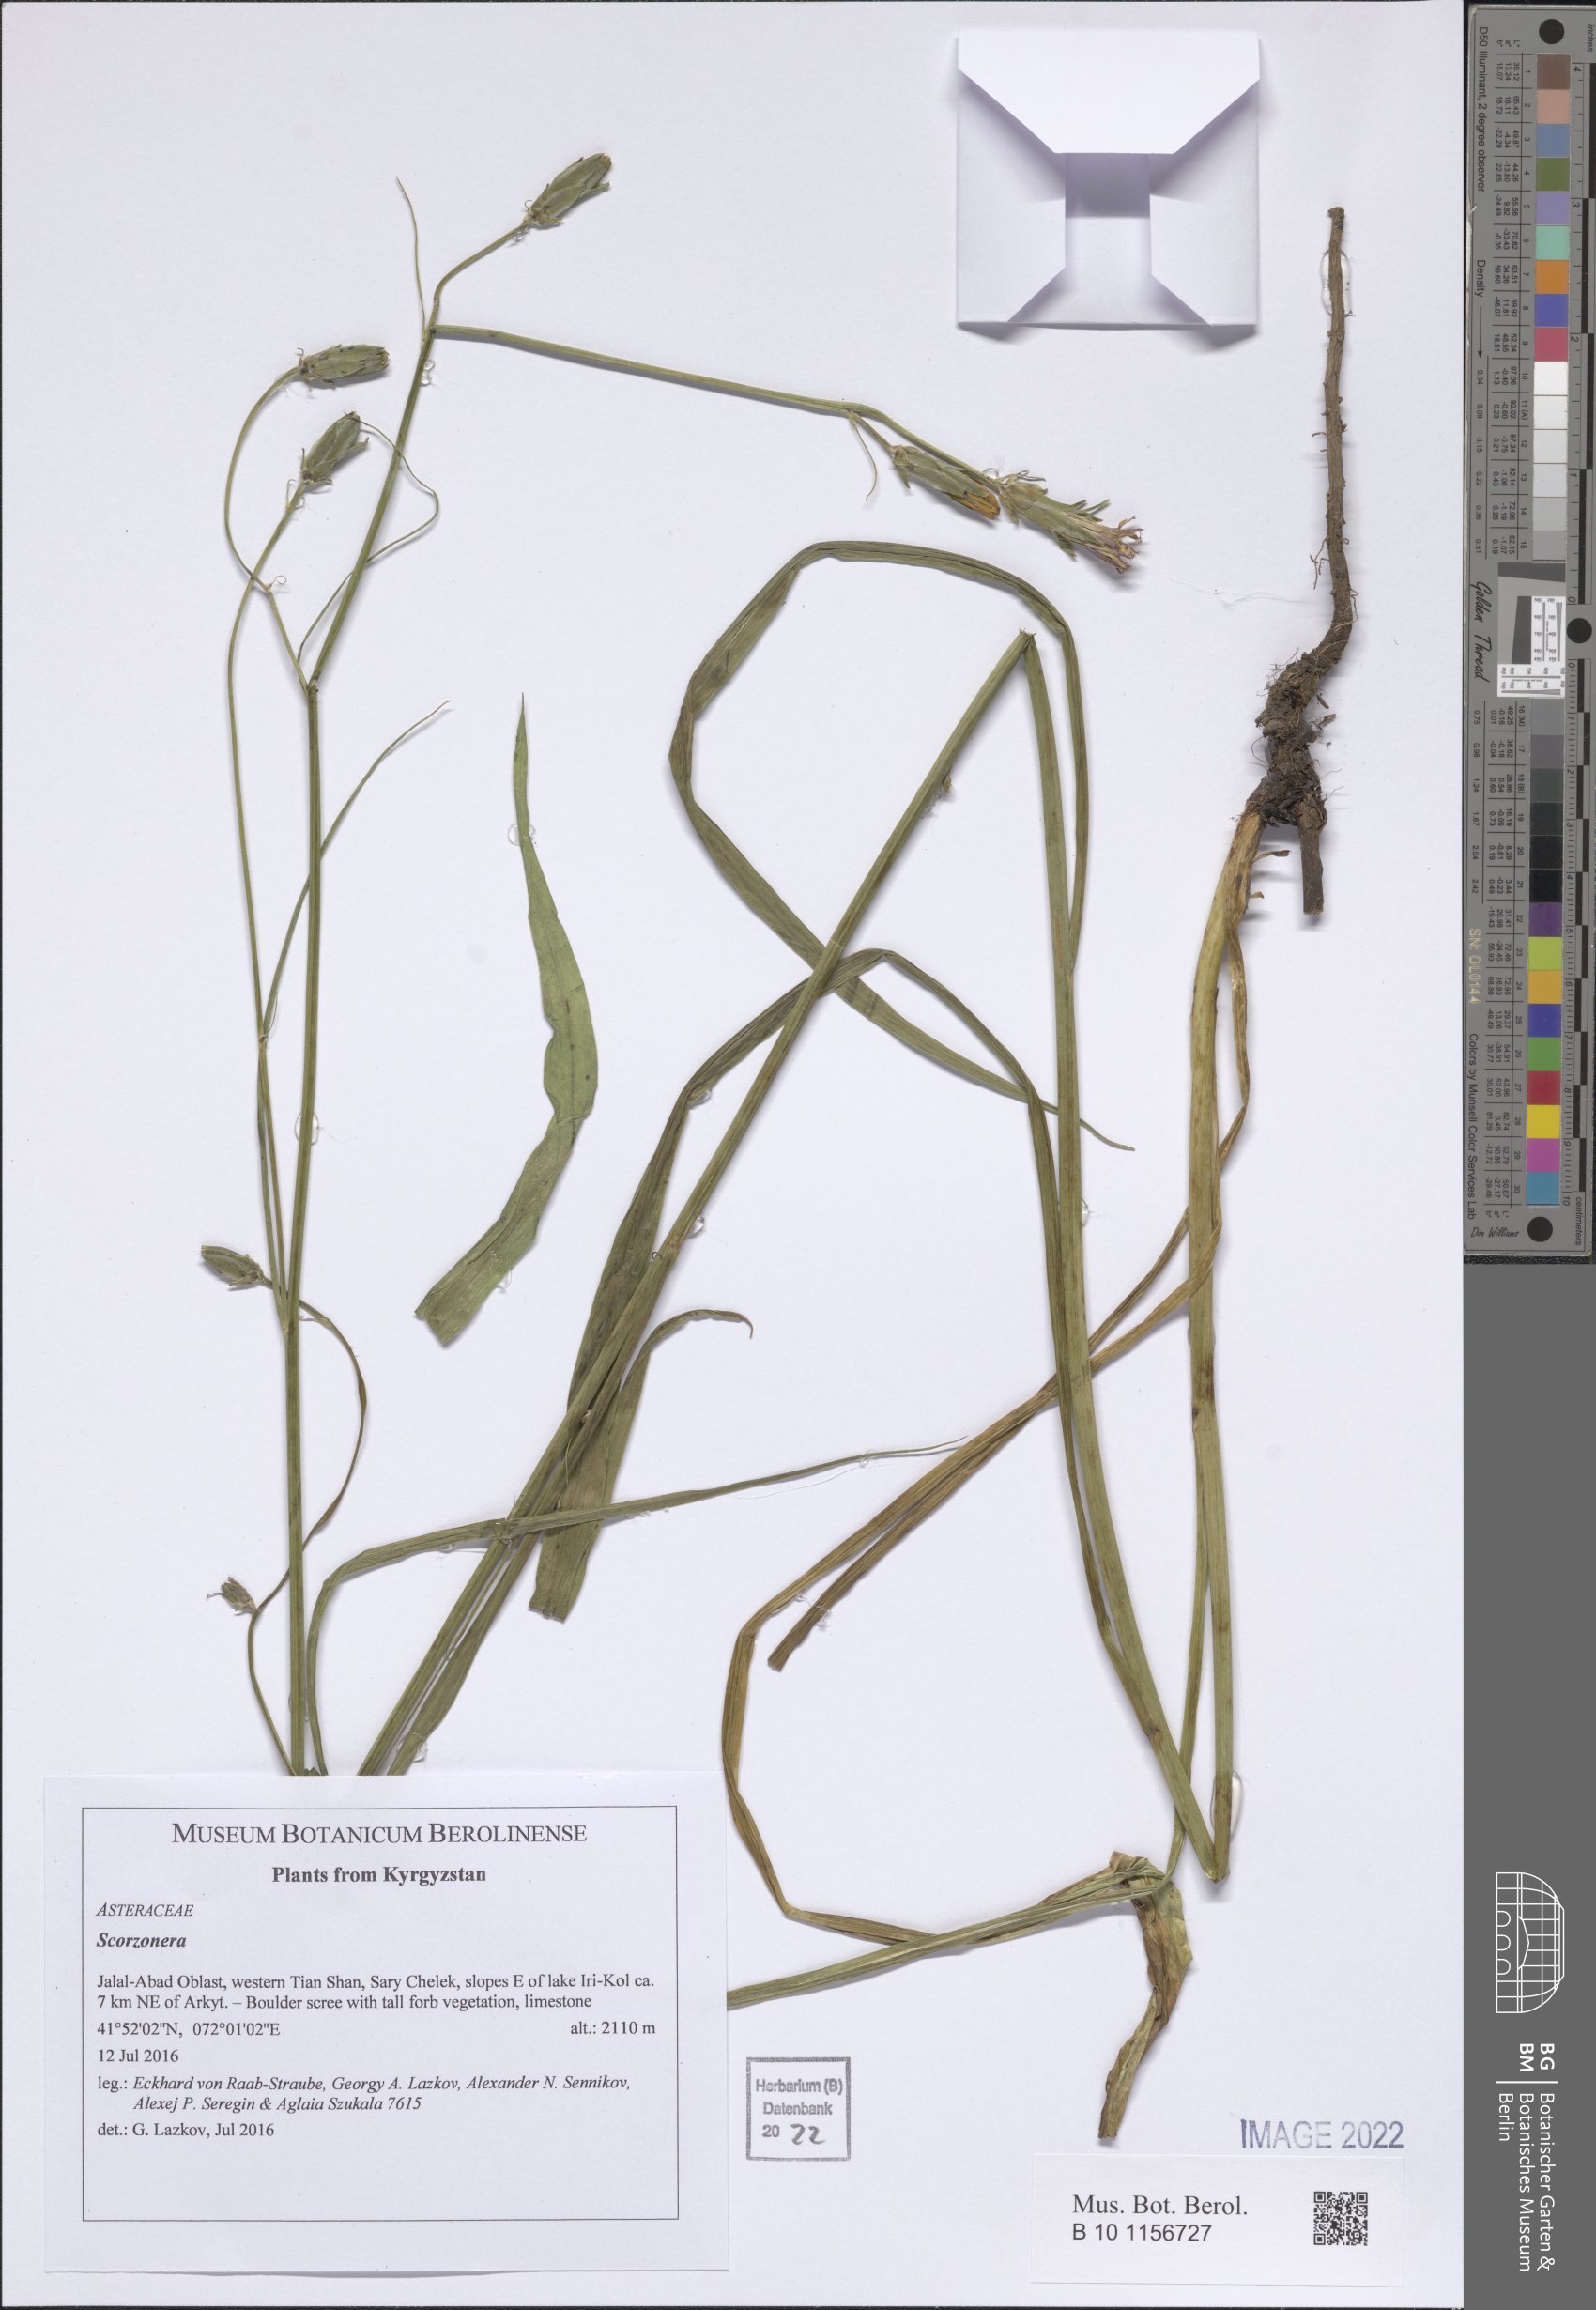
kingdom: Plantae
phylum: Tracheophyta
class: Magnoliopsida
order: Asterales
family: Asteraceae
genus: Scorzonera
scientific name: Scorzonera
